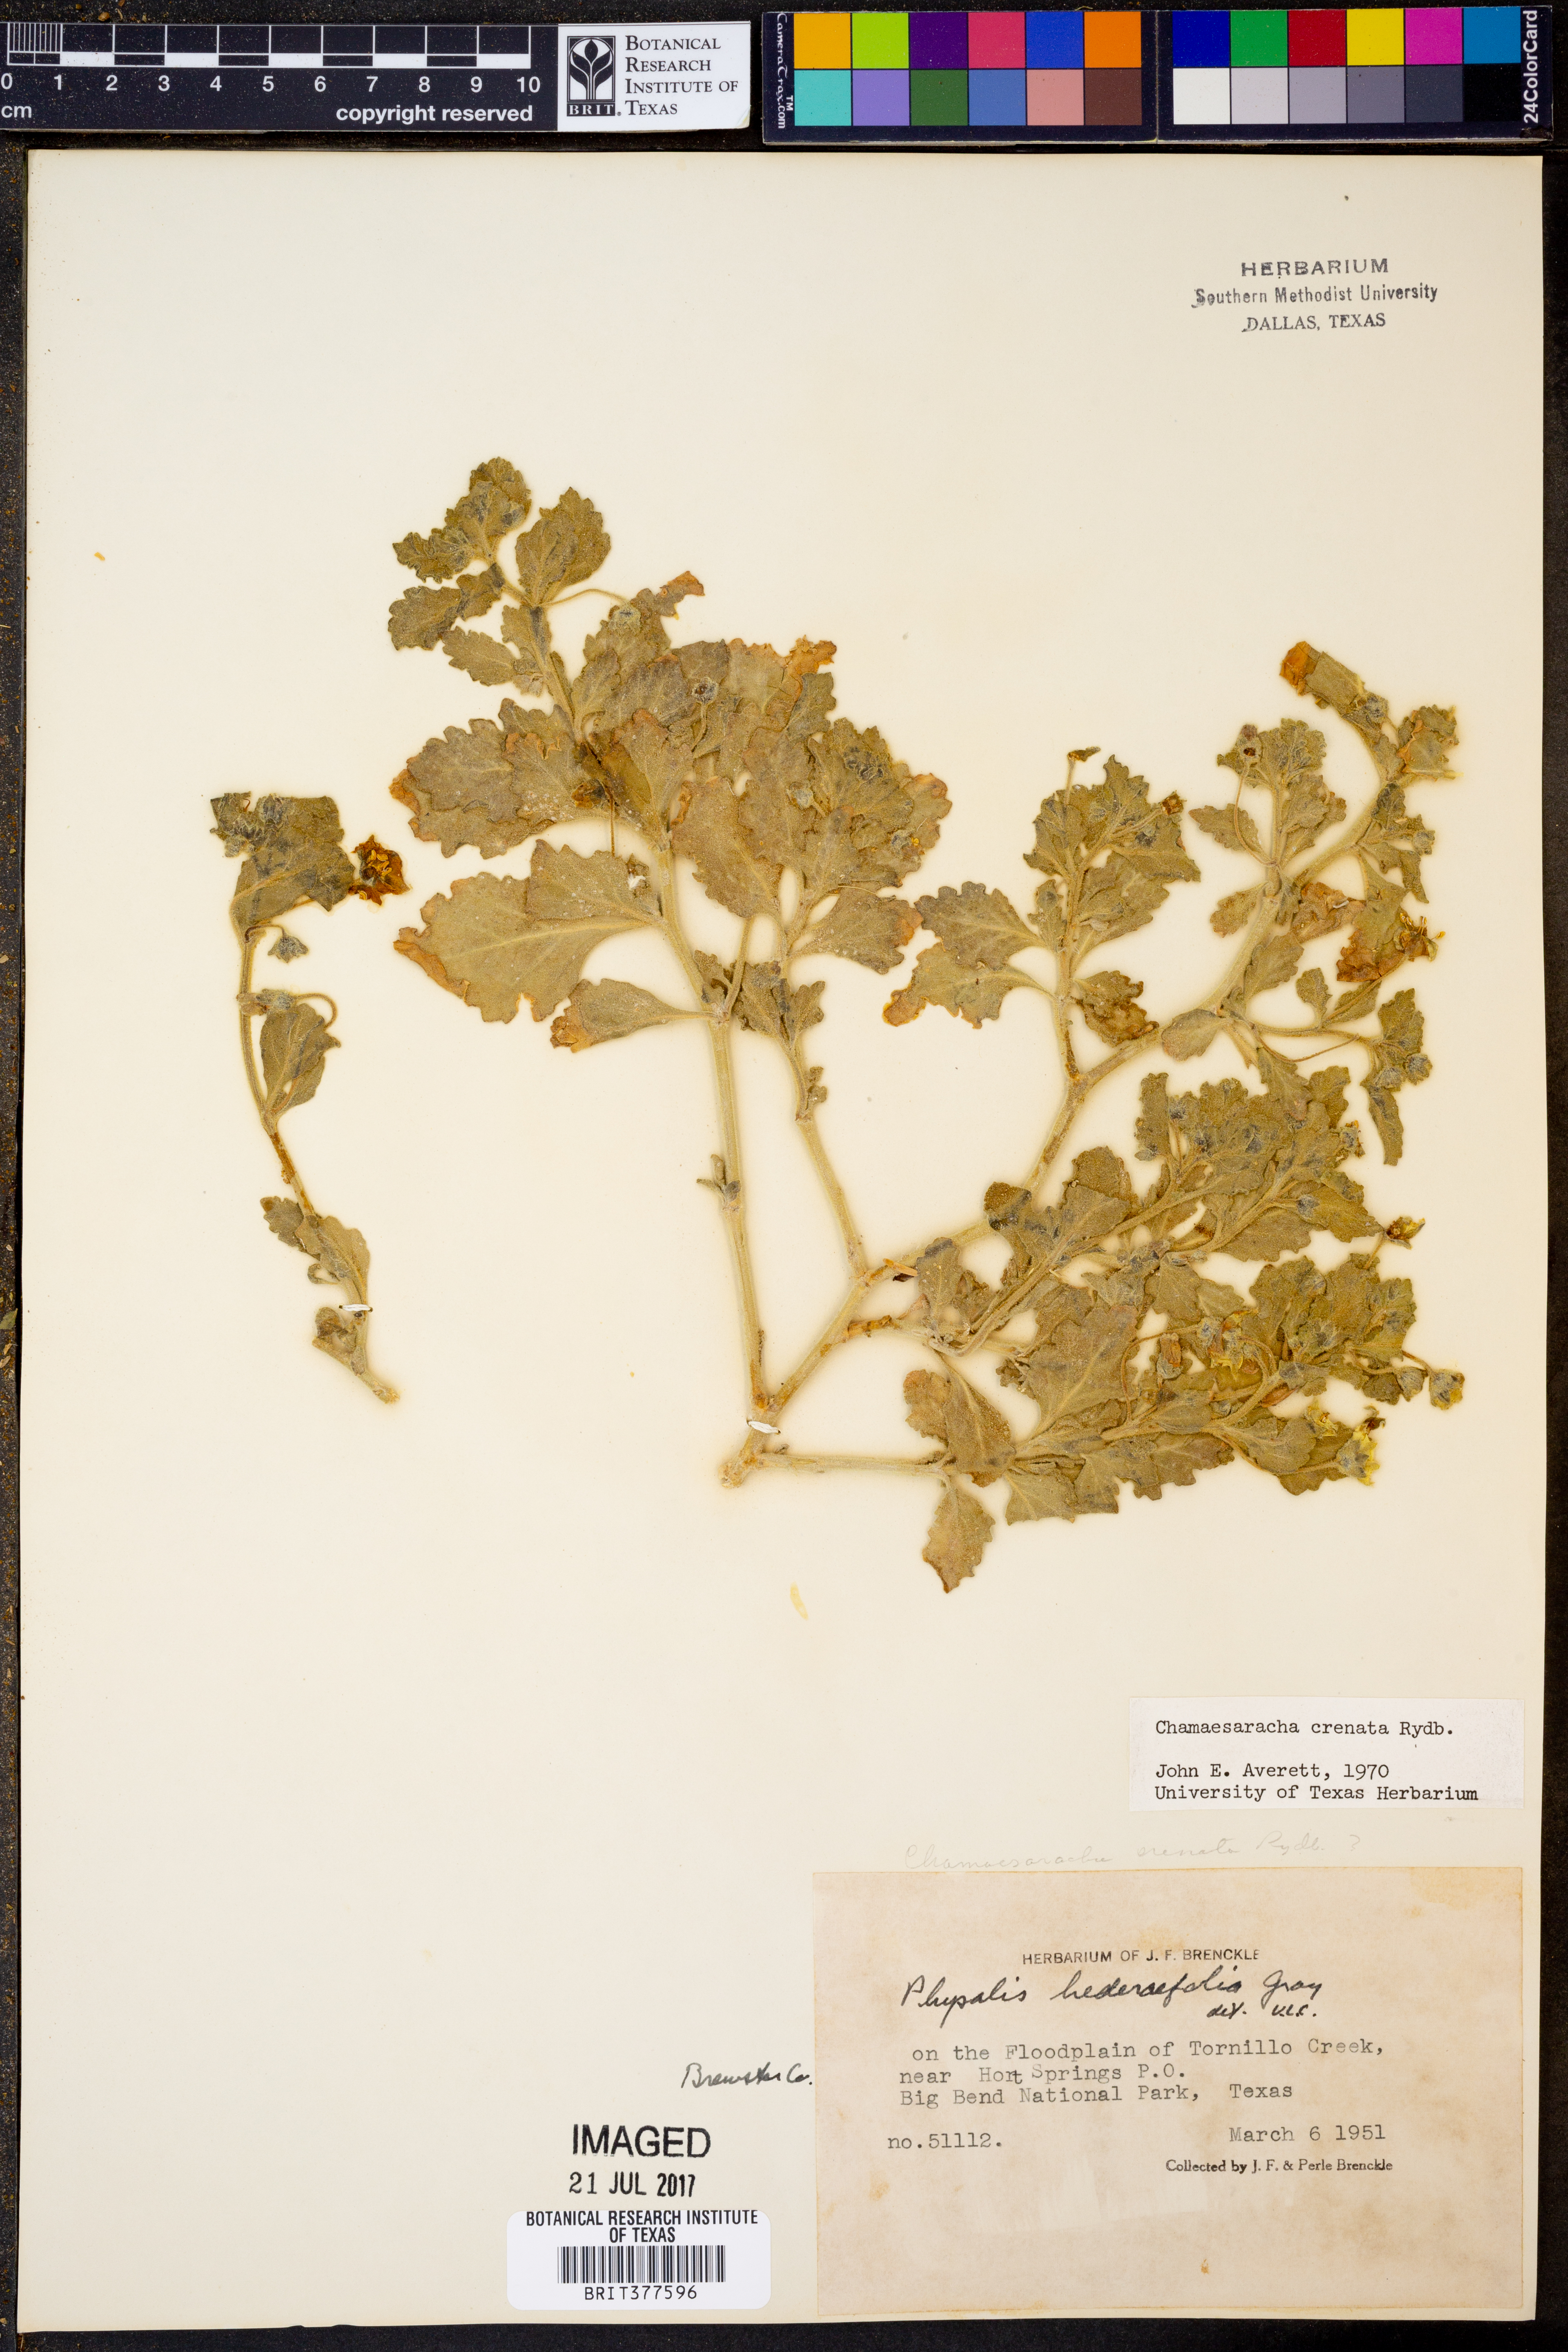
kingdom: Plantae
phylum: Tracheophyta
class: Magnoliopsida
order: Solanales
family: Solanaceae
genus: Chamaesaracha
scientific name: Chamaesaracha crenata
